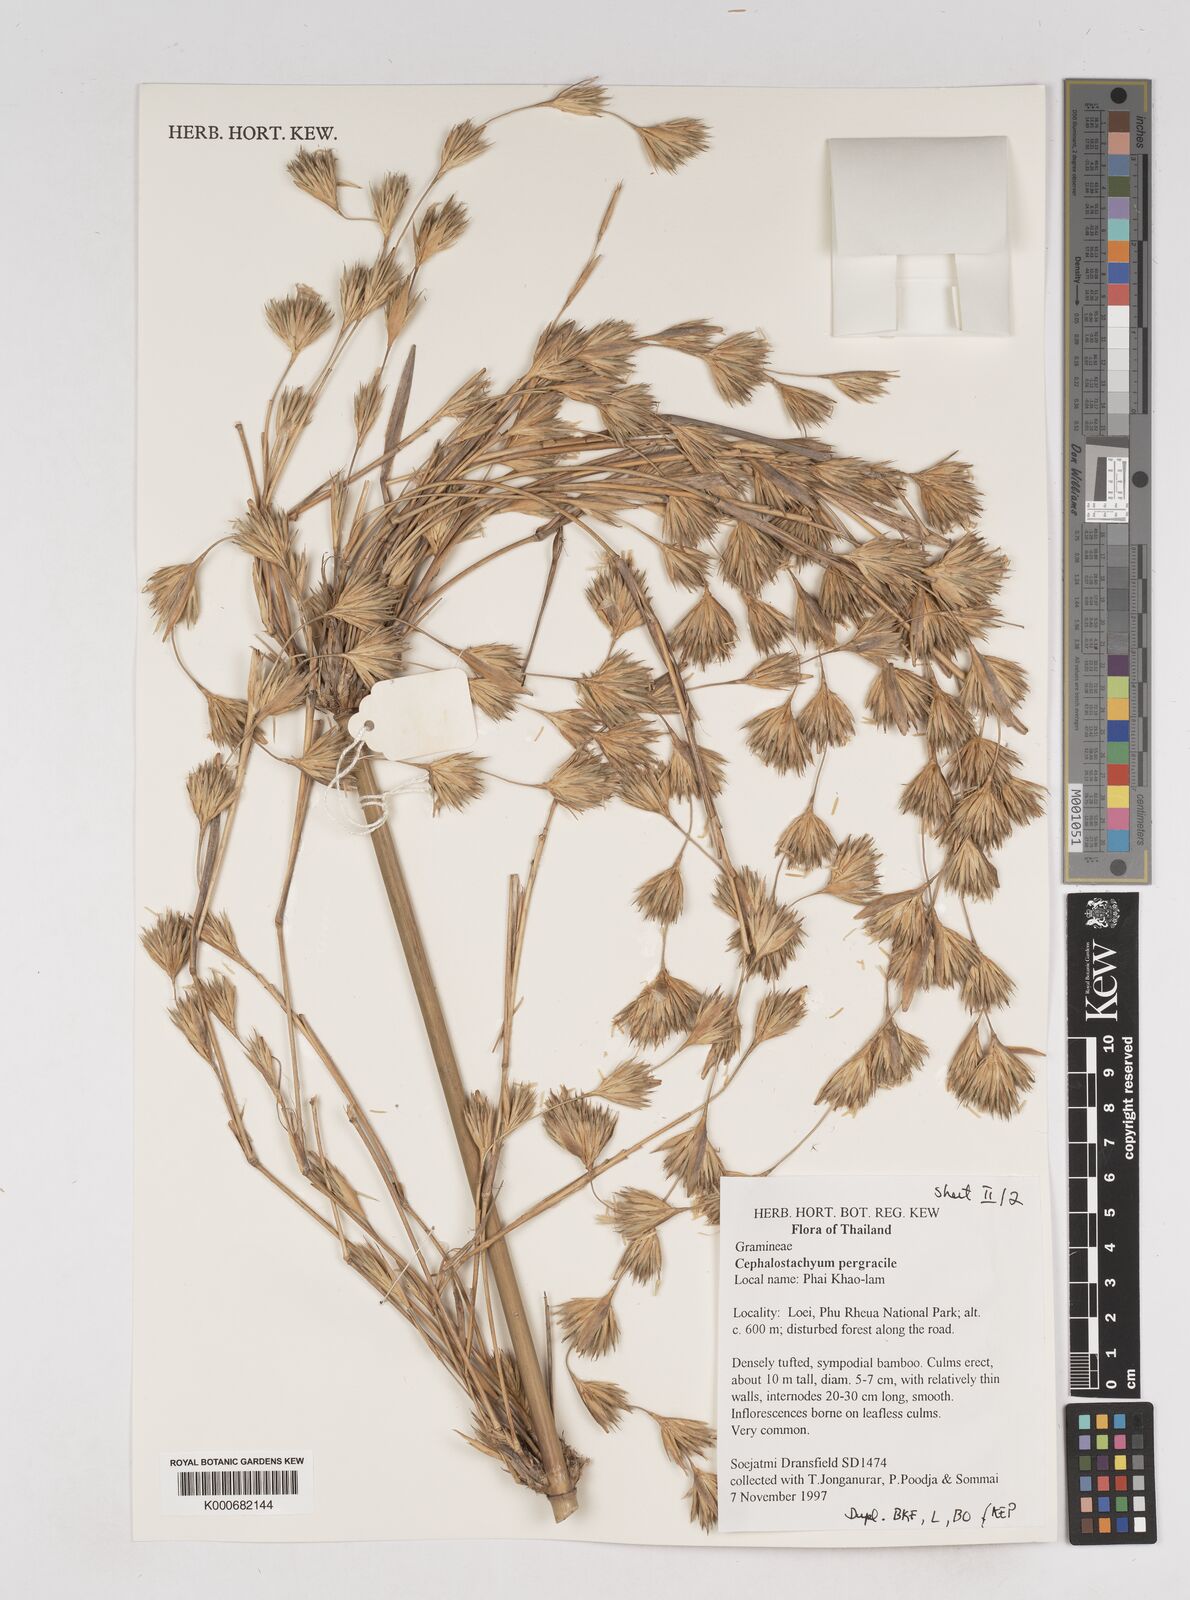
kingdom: Plantae
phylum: Tracheophyta
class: Liliopsida
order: Poales
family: Poaceae
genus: Schizostachyum
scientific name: Schizostachyum pergracile
